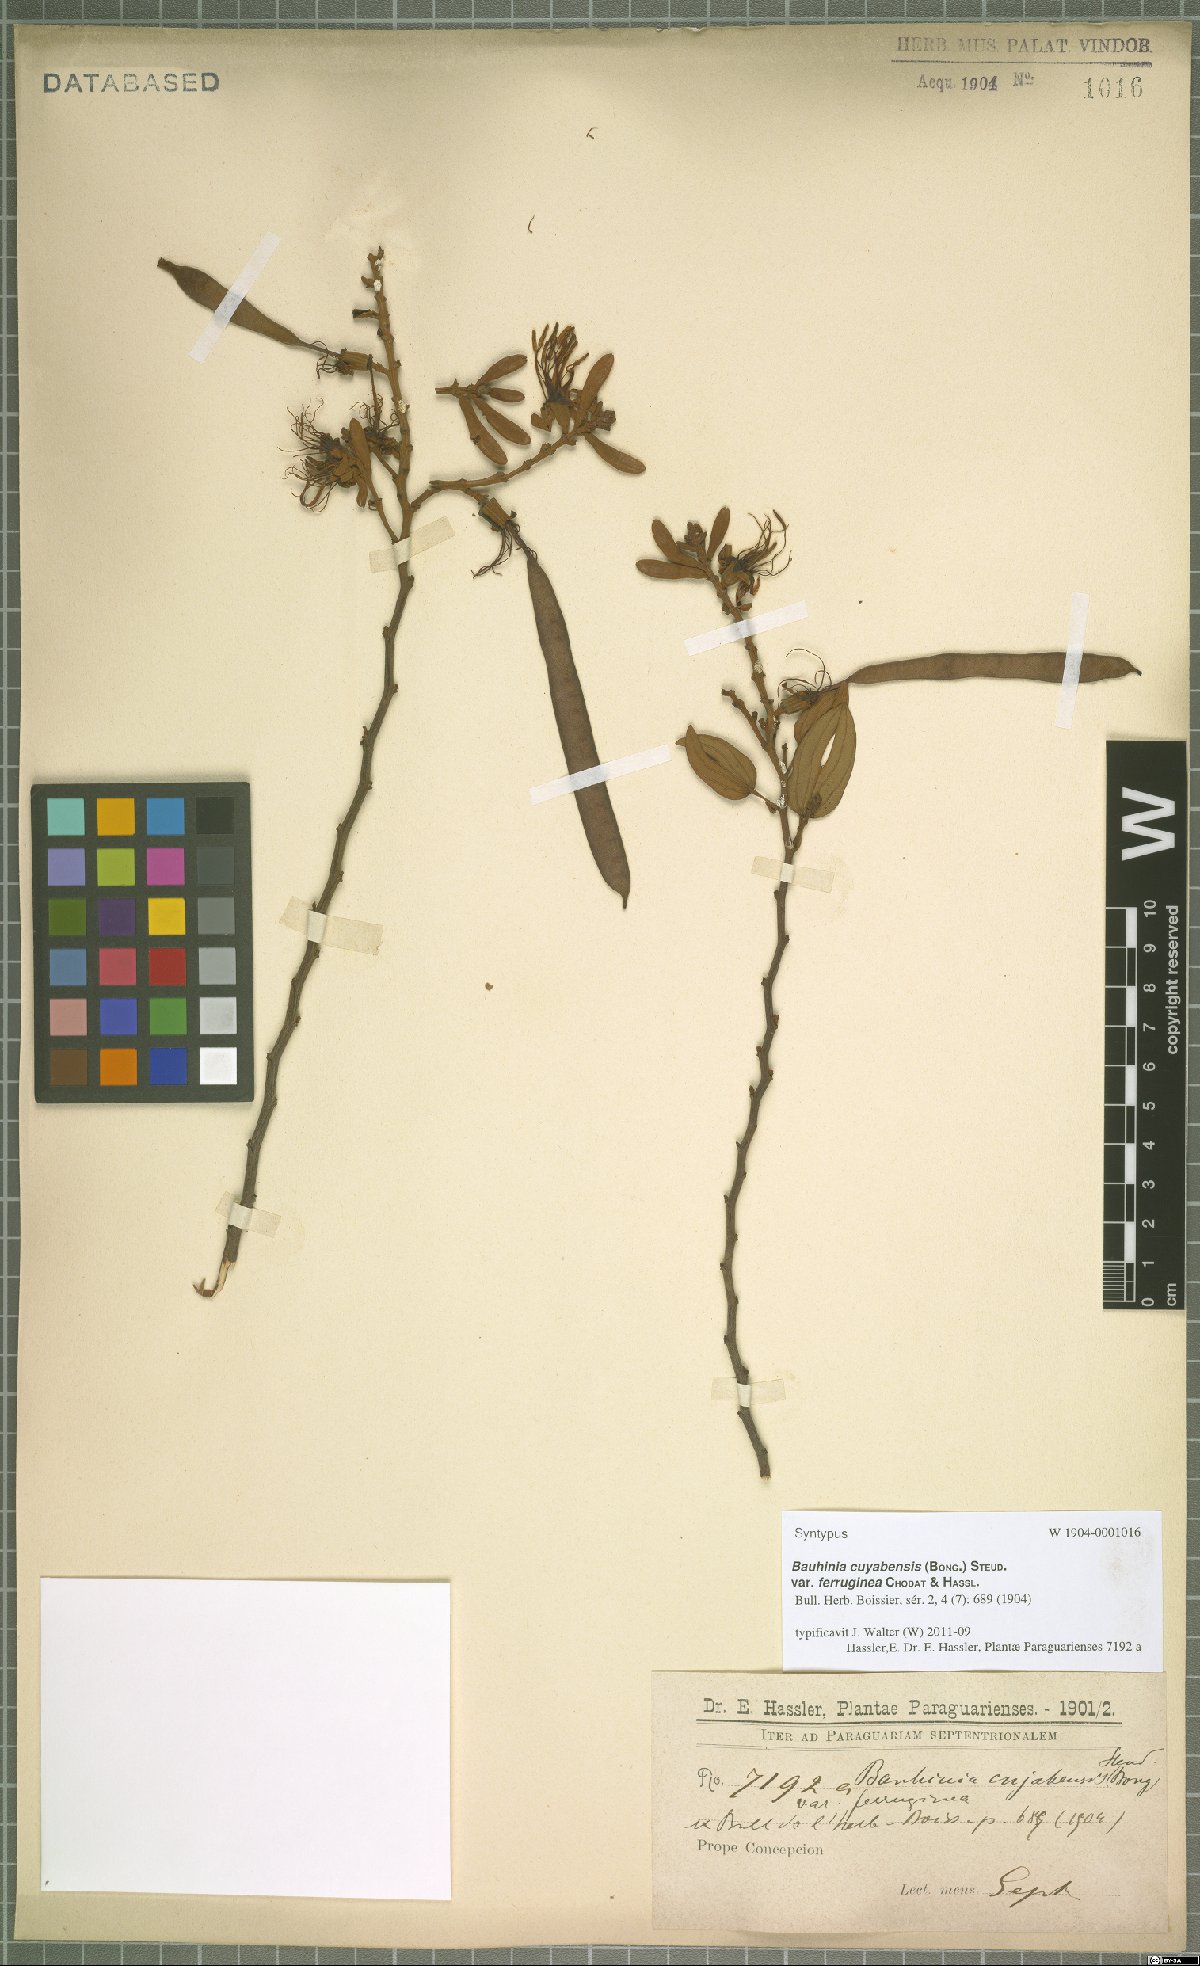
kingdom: Plantae
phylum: Tracheophyta
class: Magnoliopsida
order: Fabales
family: Fabaceae
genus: Bauhinia
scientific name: Bauhinia ungulata
